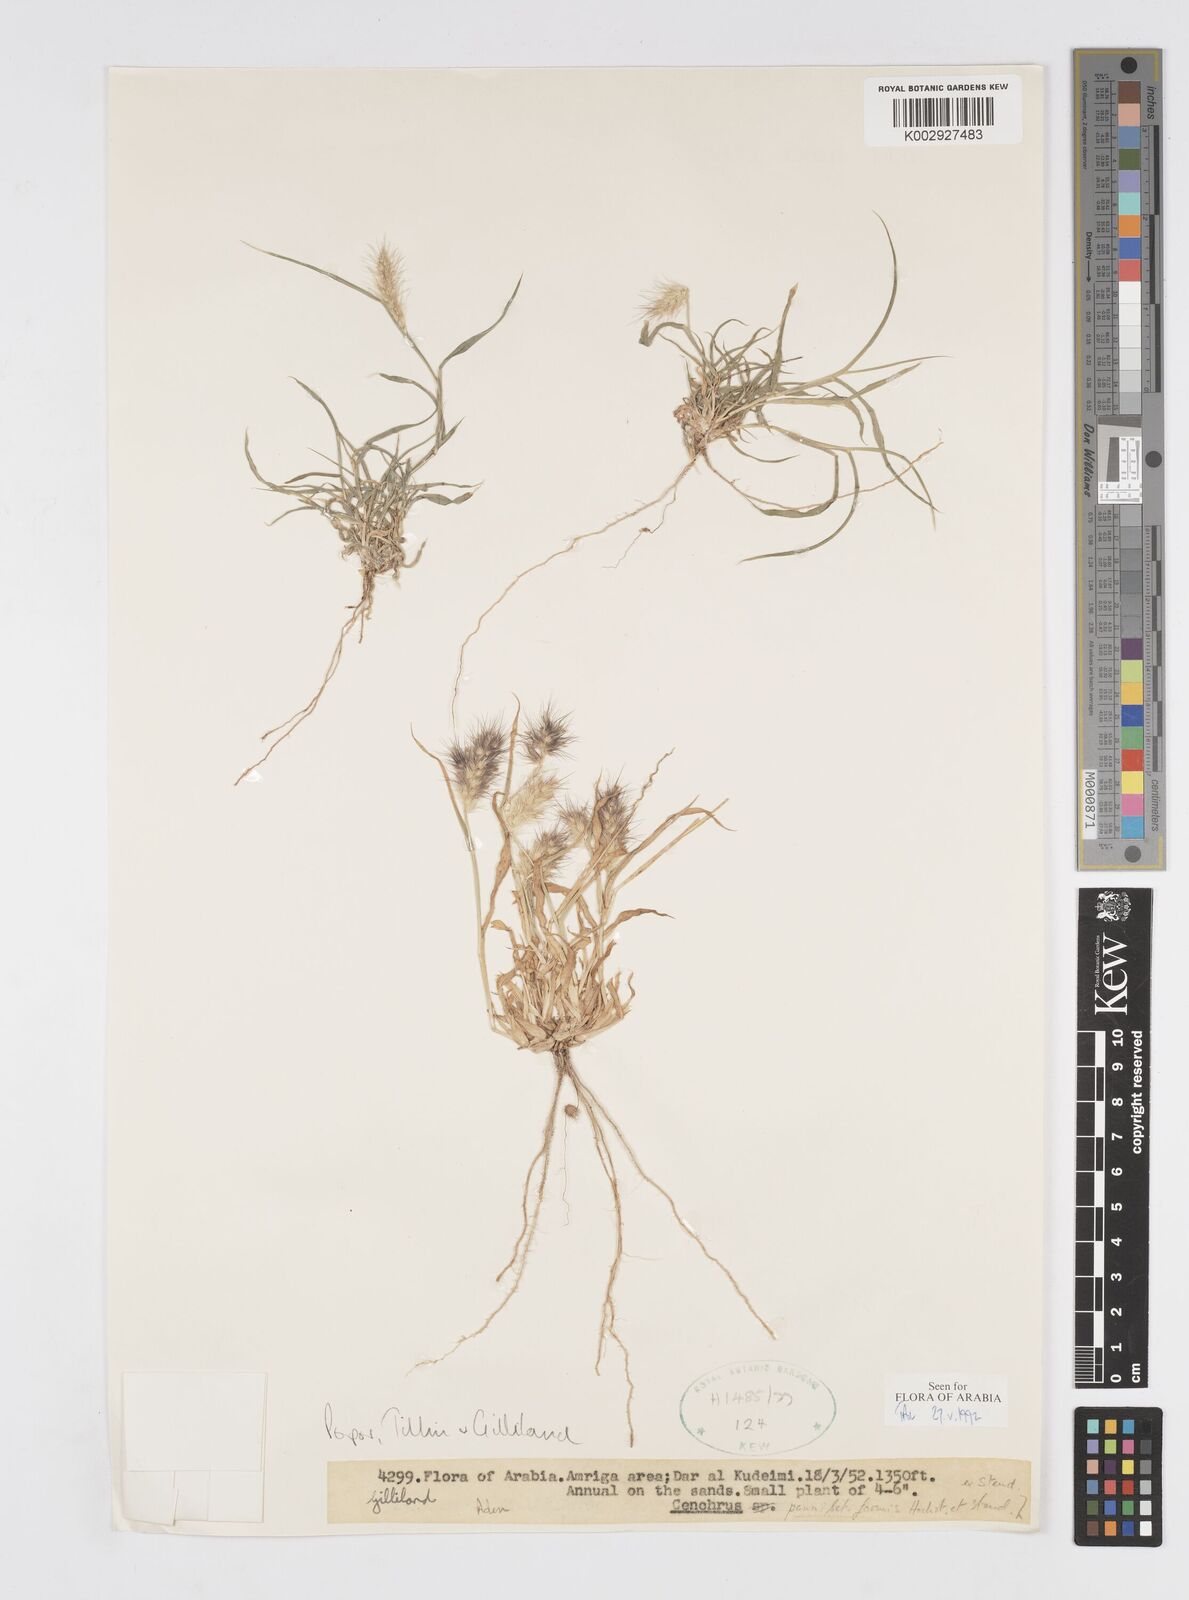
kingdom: Plantae
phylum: Tracheophyta
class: Liliopsida
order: Poales
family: Poaceae
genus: Cenchrus
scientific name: Cenchrus pennisetiformis
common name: Cloncurry
